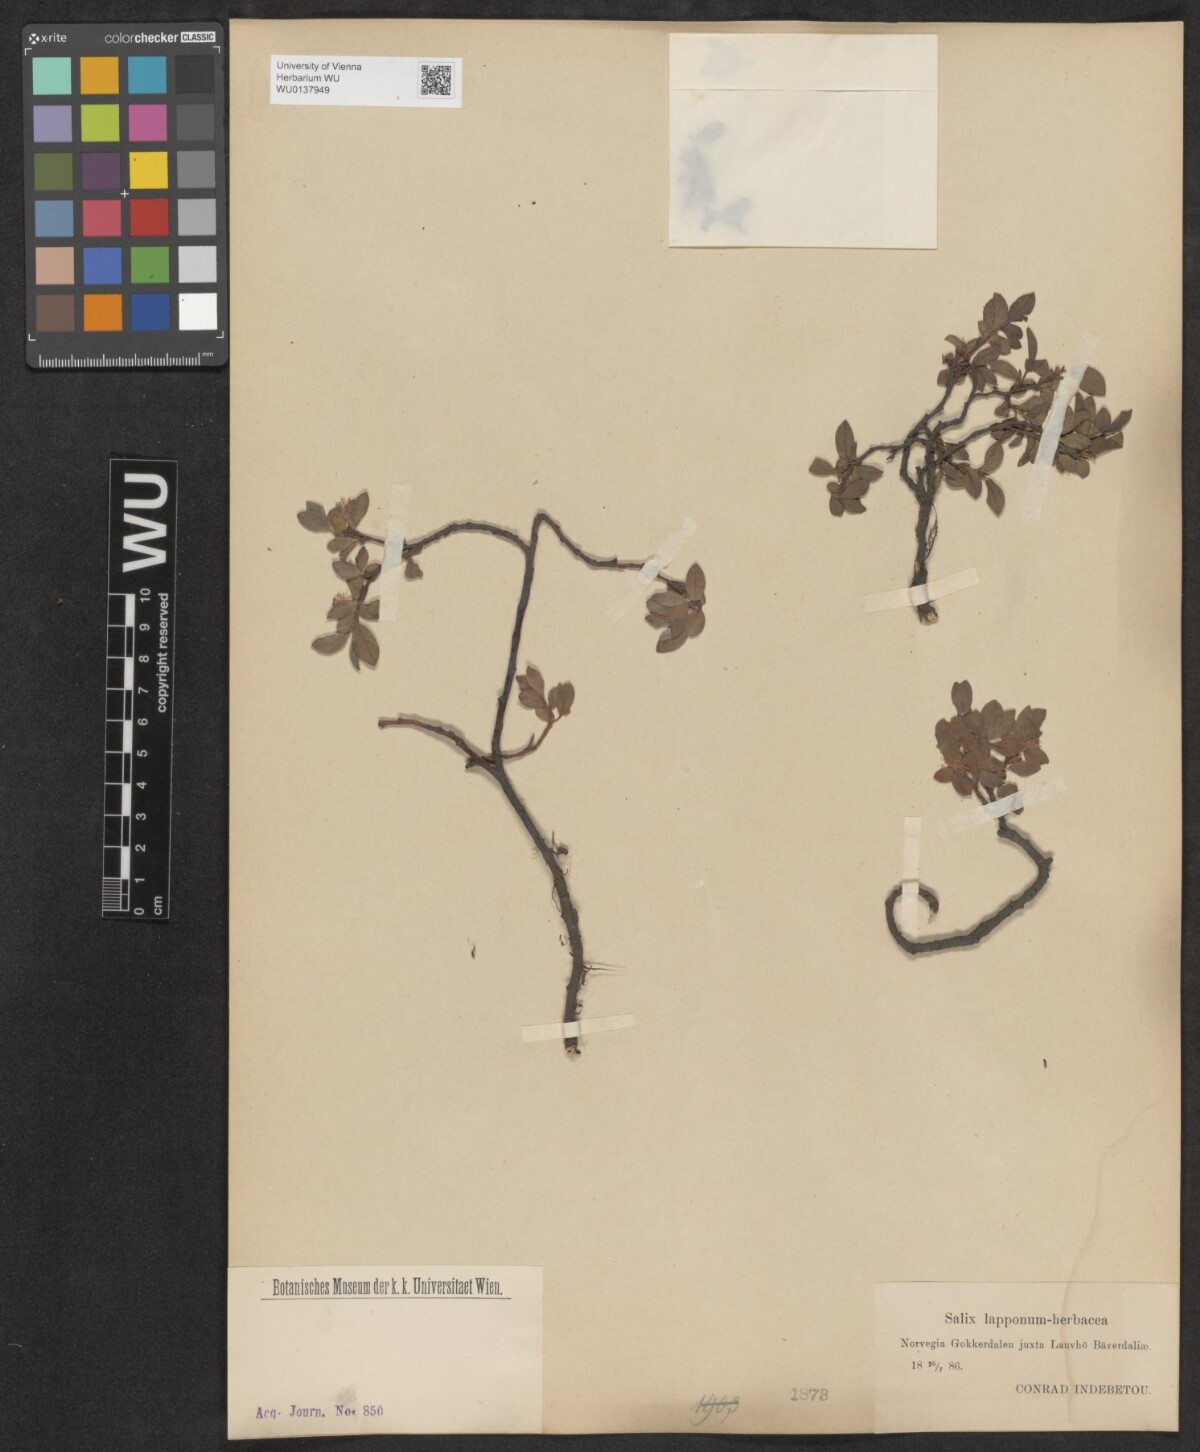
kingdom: Plantae
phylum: Tracheophyta
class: Magnoliopsida
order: Malpighiales
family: Salicaceae
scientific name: Salicaceae
